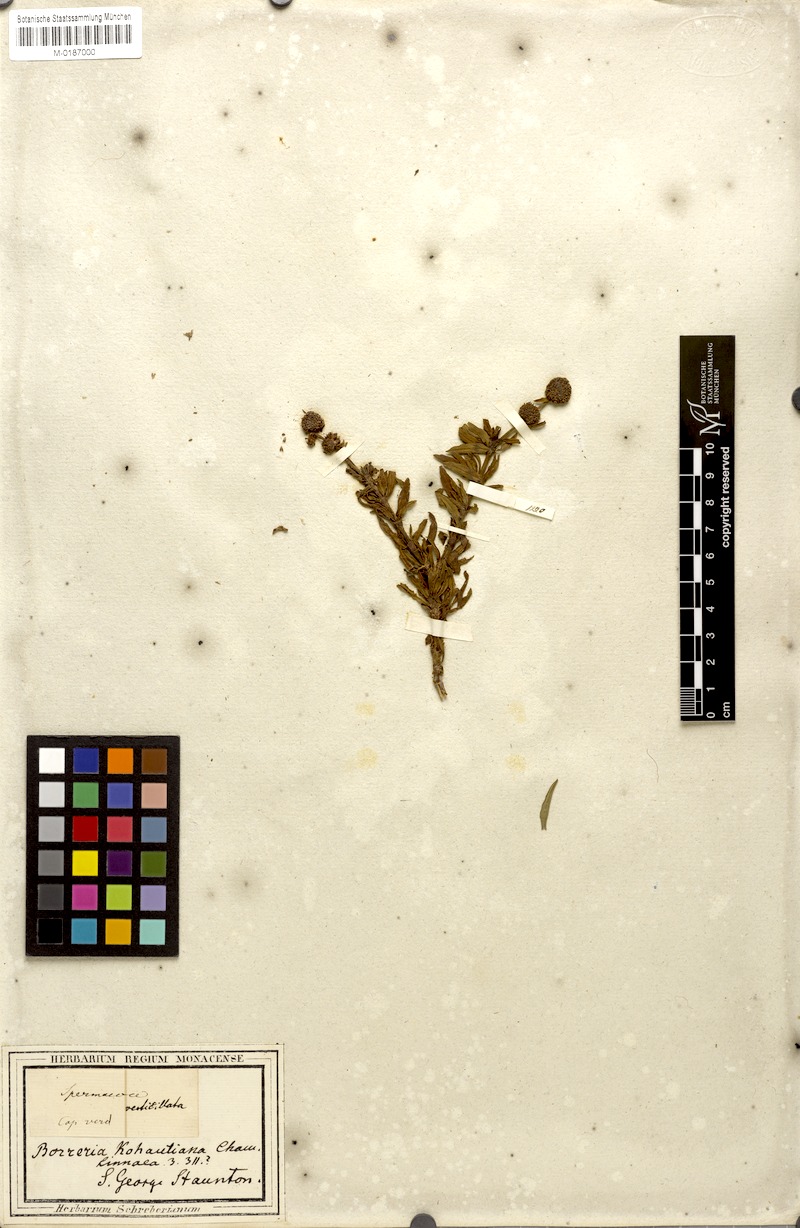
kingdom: Plantae
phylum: Tracheophyta
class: Magnoliopsida
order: Gentianales
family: Rubiaceae
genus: Spermacoce
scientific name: Spermacoce verticillata
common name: Shrubby false buttonweed
